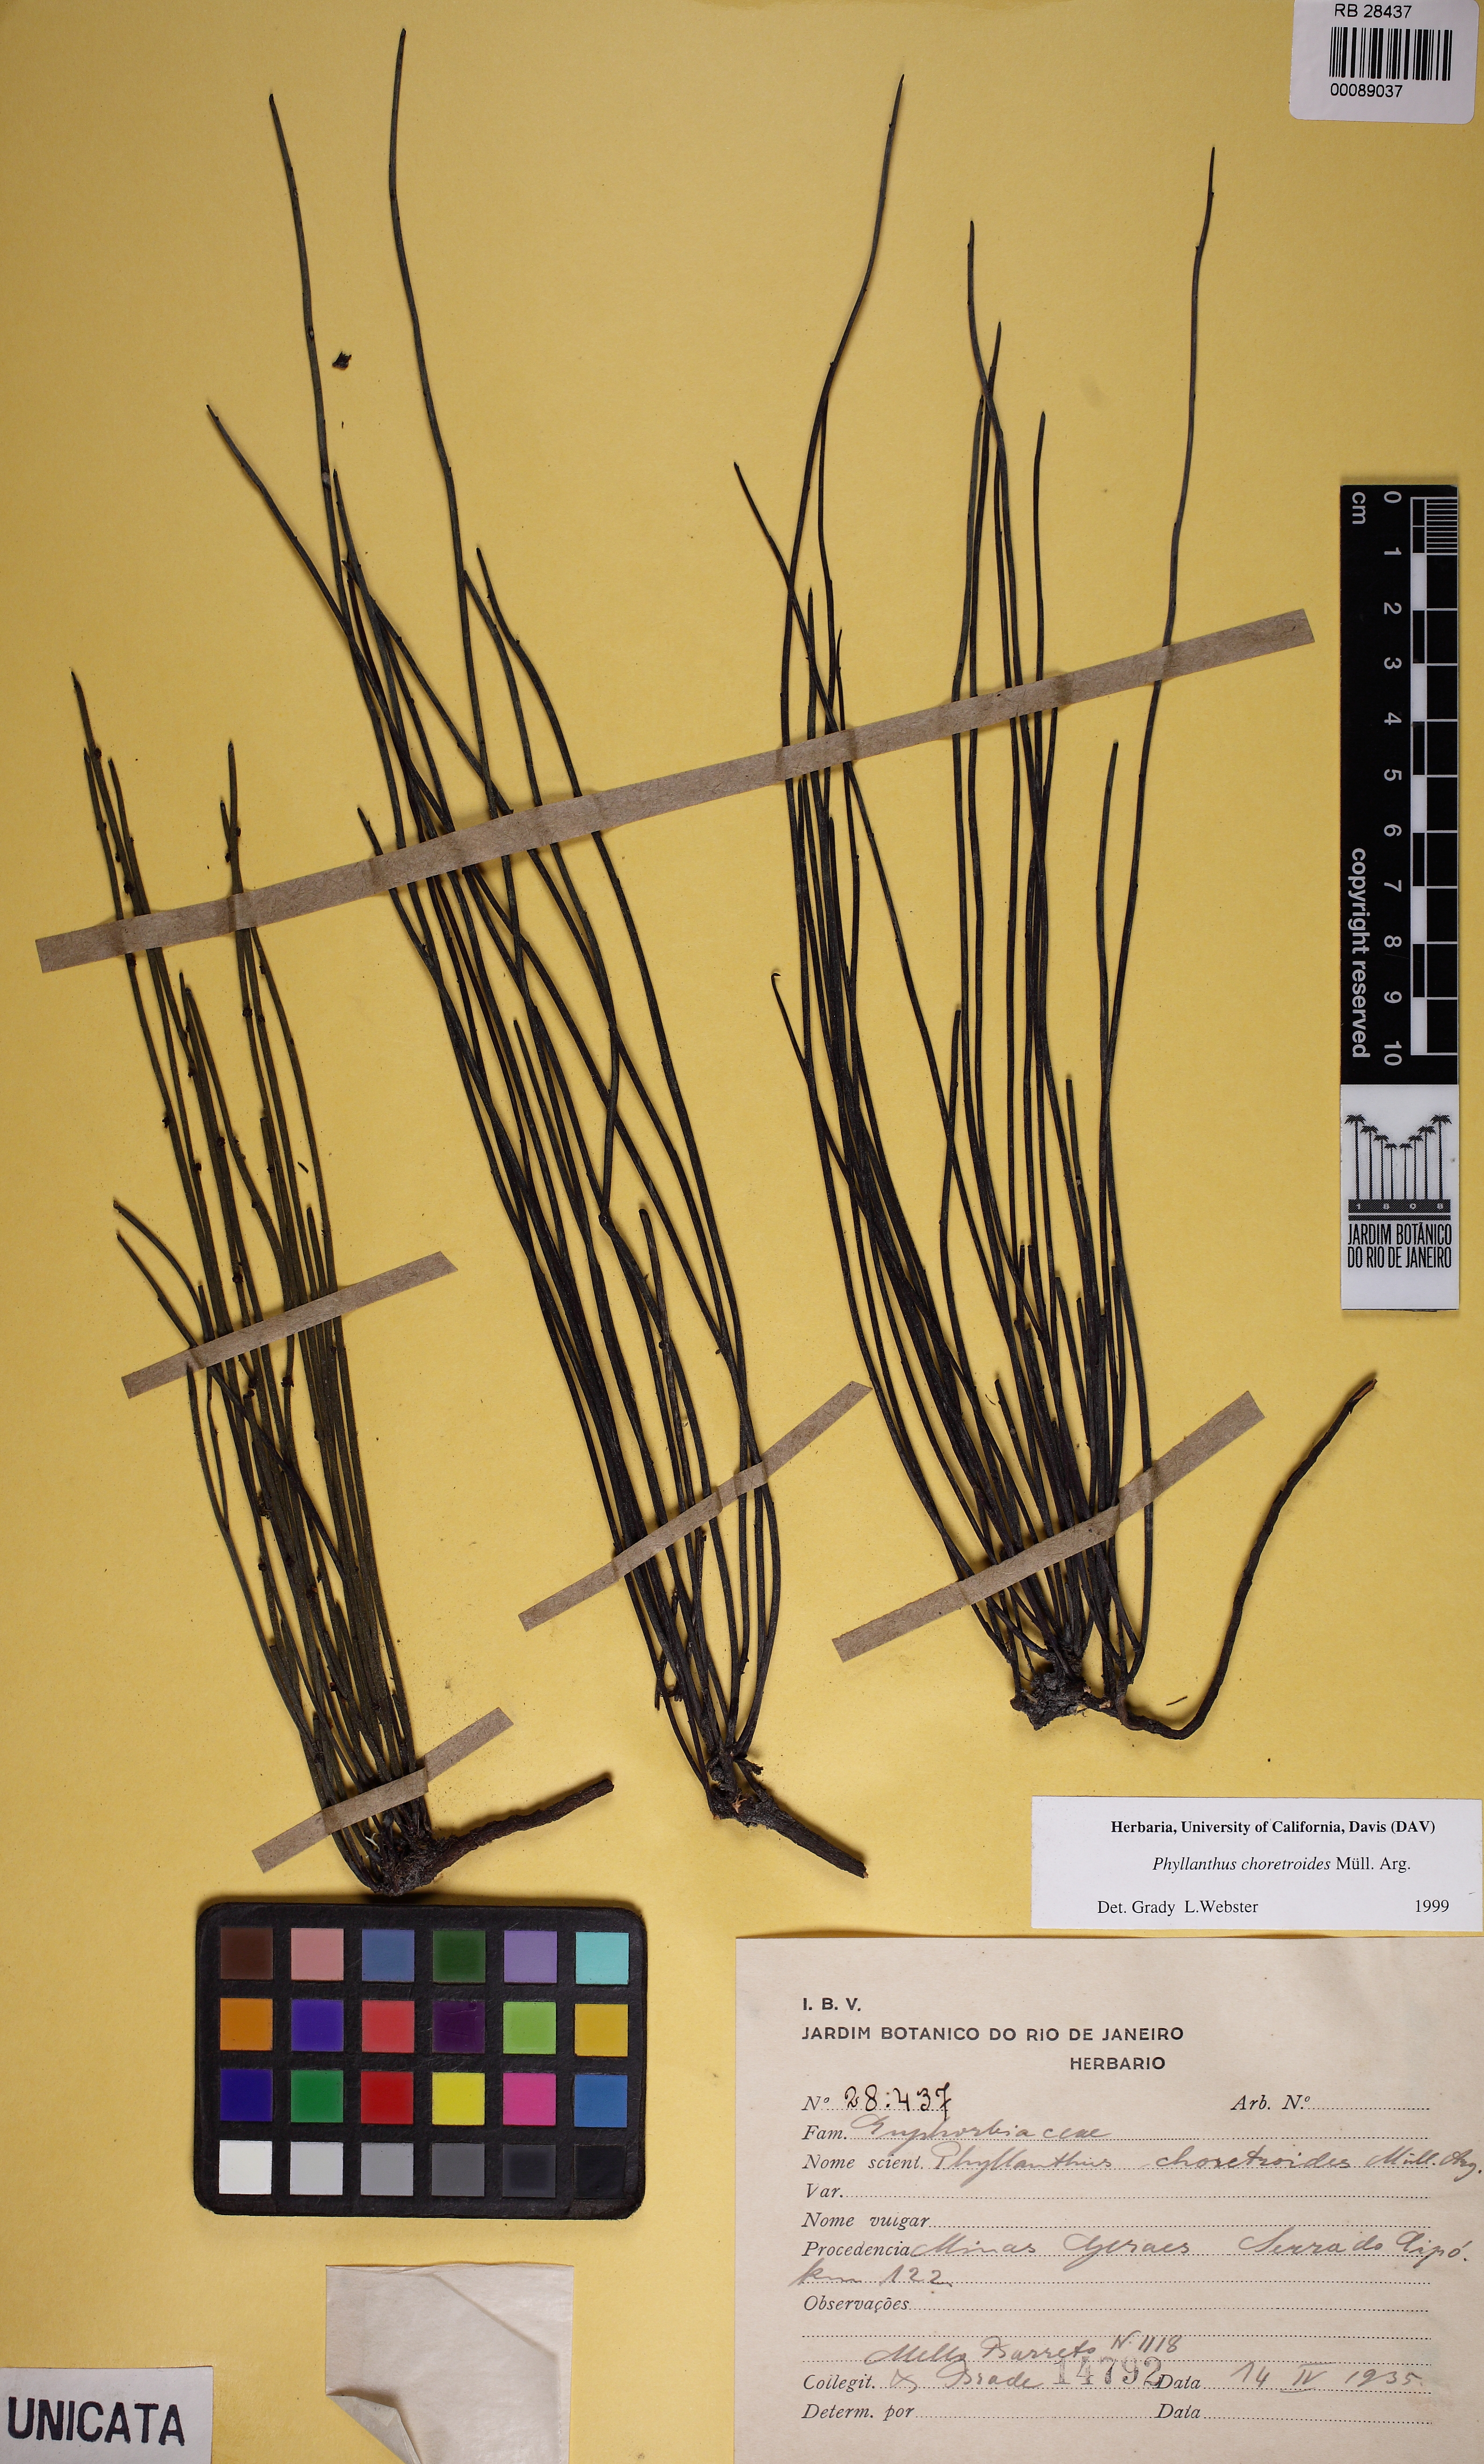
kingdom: Plantae
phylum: Tracheophyta
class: Magnoliopsida
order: Malpighiales
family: Phyllanthaceae
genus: Phyllanthus
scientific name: Phyllanthus choretroides
